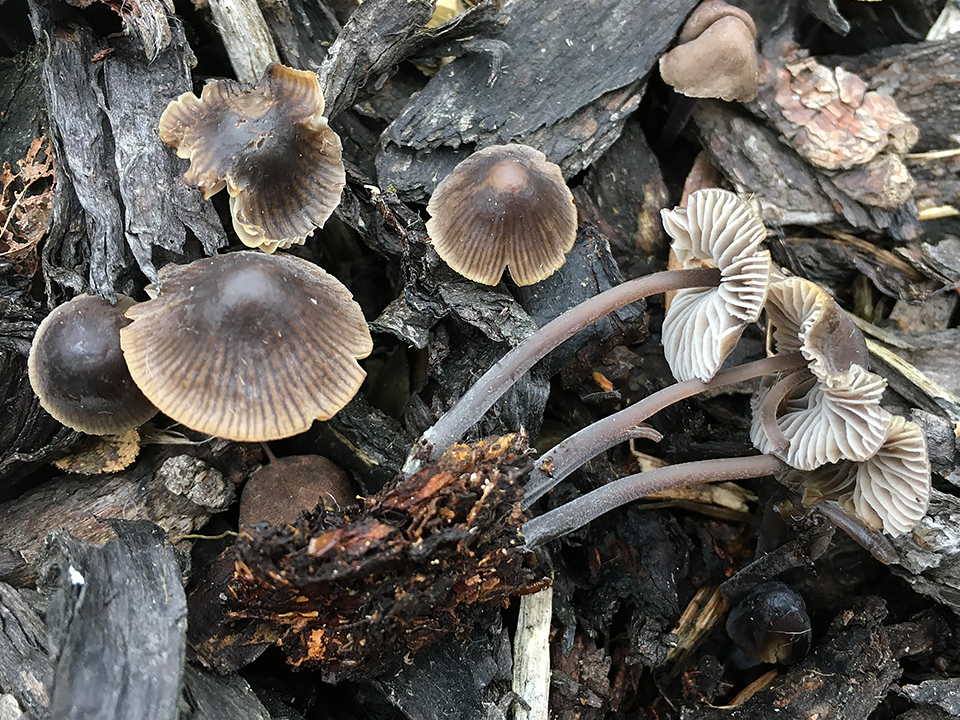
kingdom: Fungi
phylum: Basidiomycota
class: Agaricomycetes
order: Agaricales
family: Mycenaceae
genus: Mycena
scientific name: Mycena leptocephala
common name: klor-huesvamp
